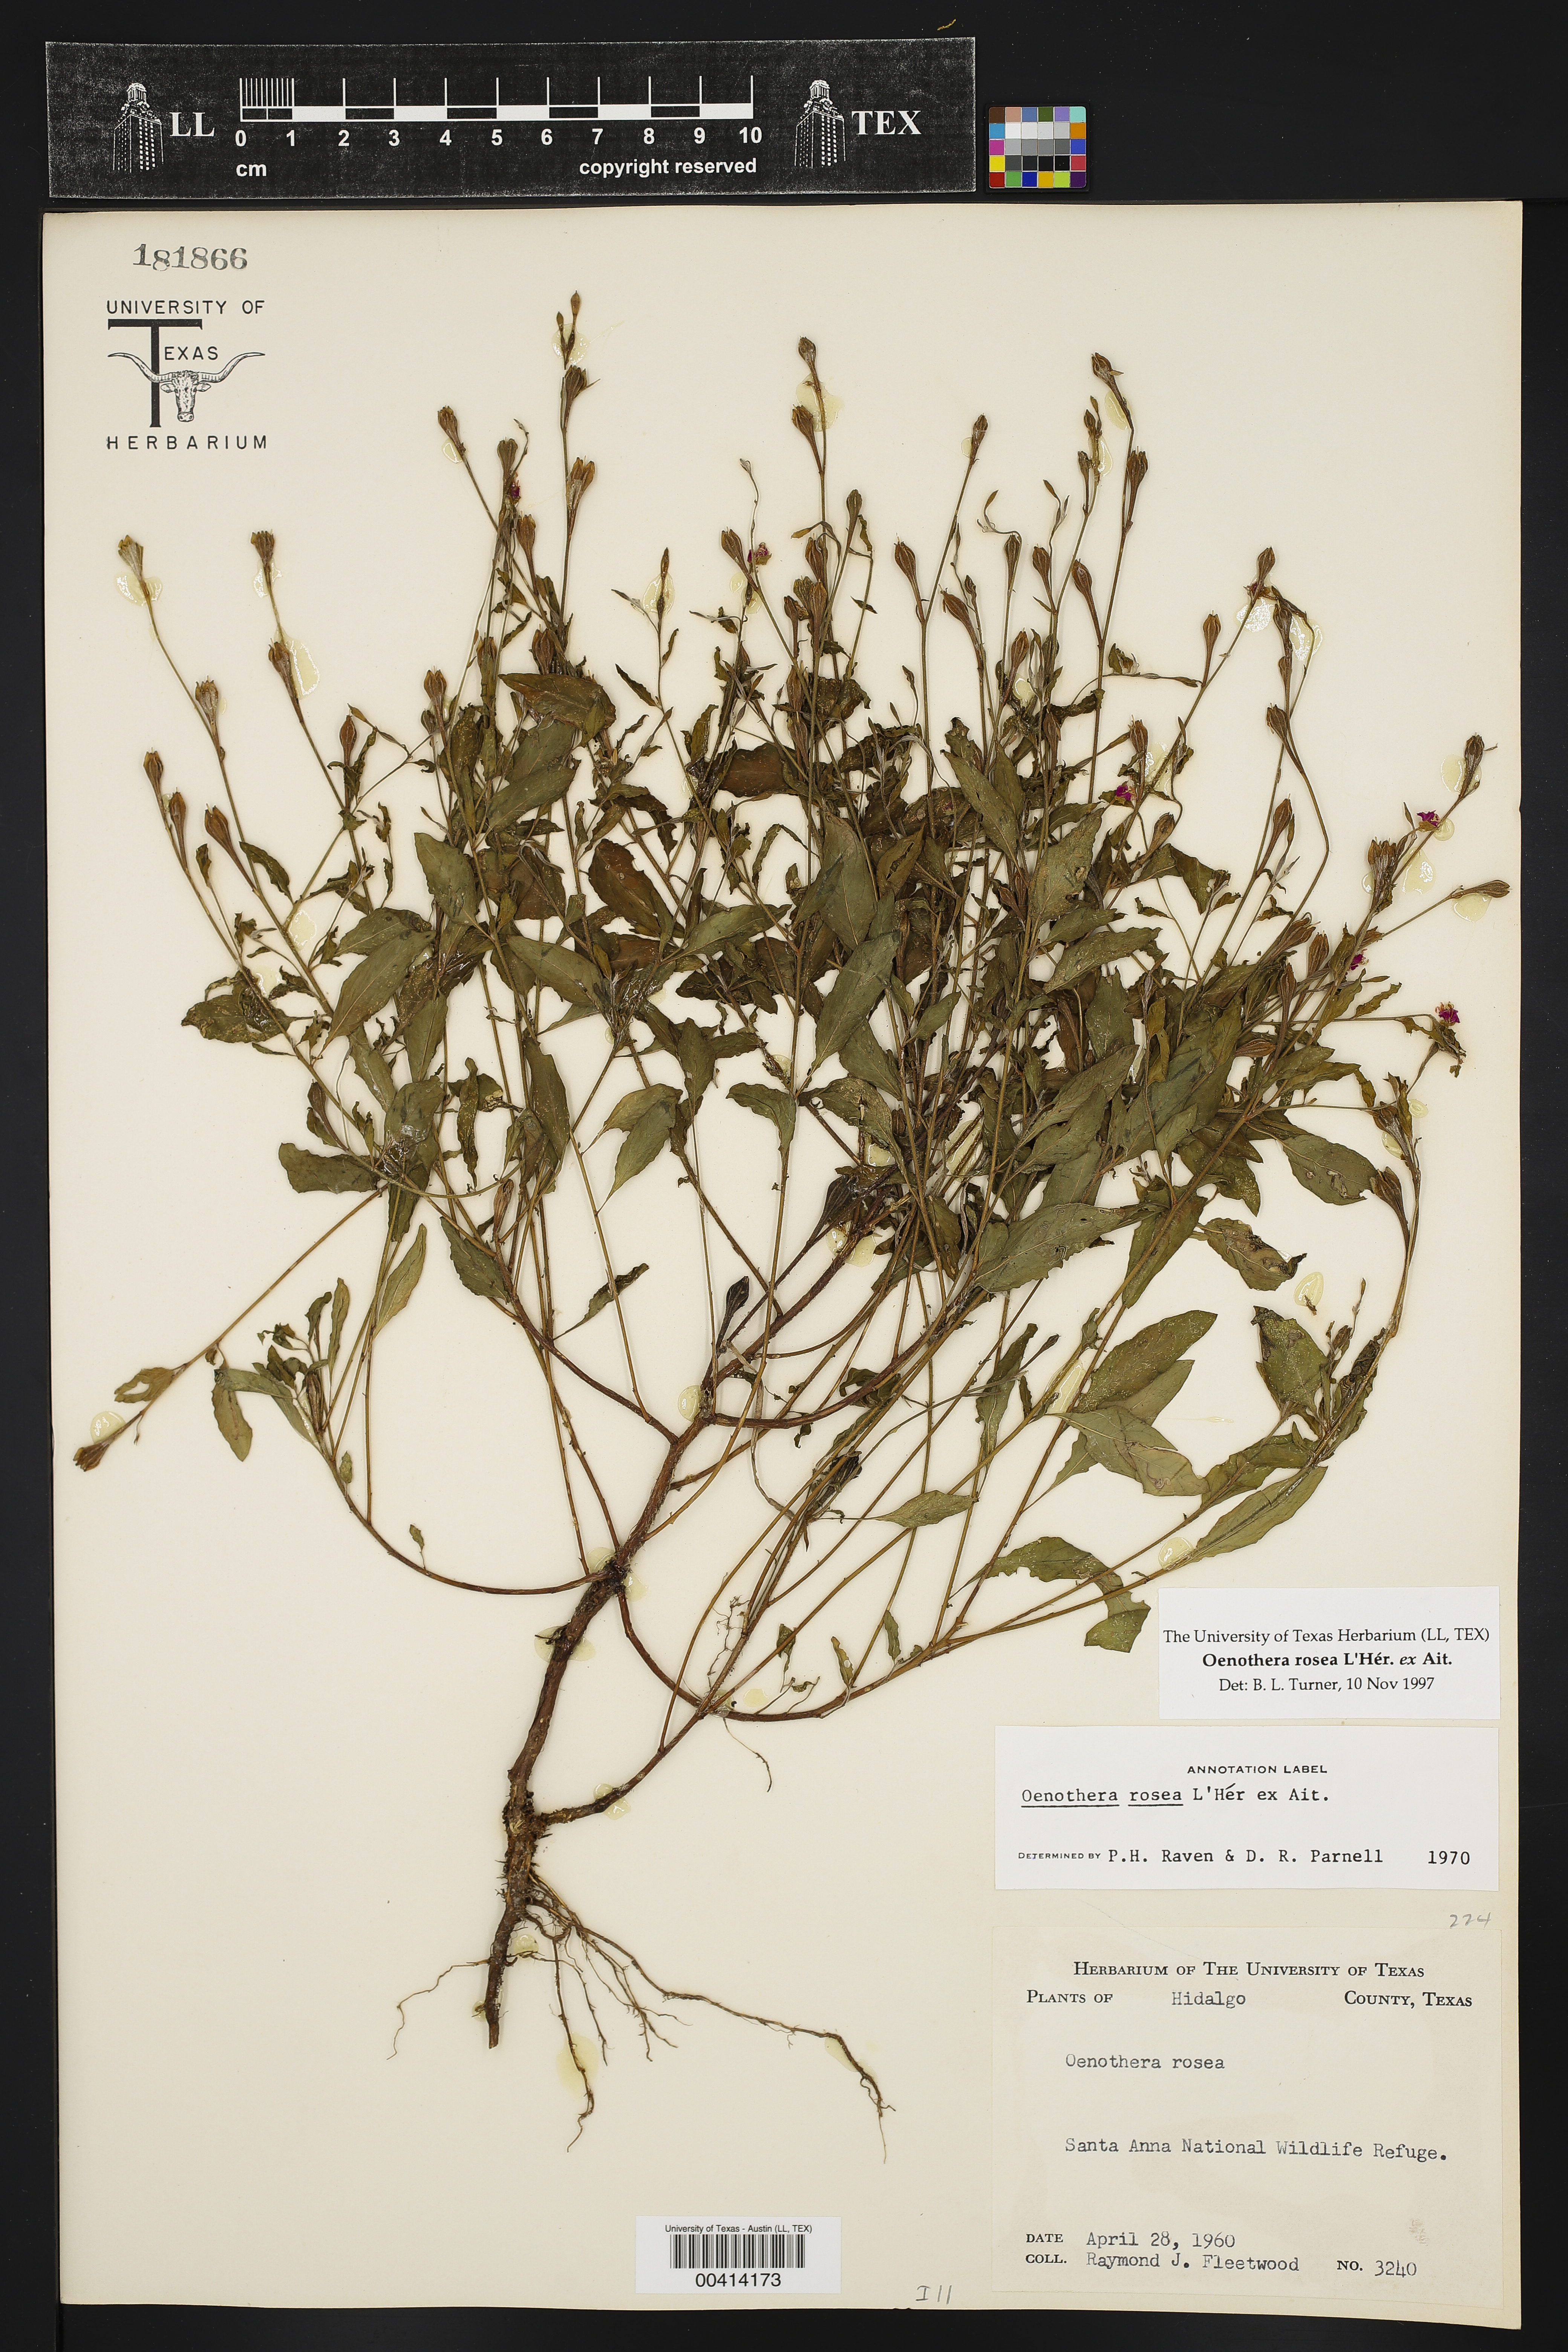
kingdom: Plantae
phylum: Tracheophyta
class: Magnoliopsida
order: Myrtales
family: Onagraceae
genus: Oenothera
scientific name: Oenothera rosea
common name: Rosy evening-primrose
